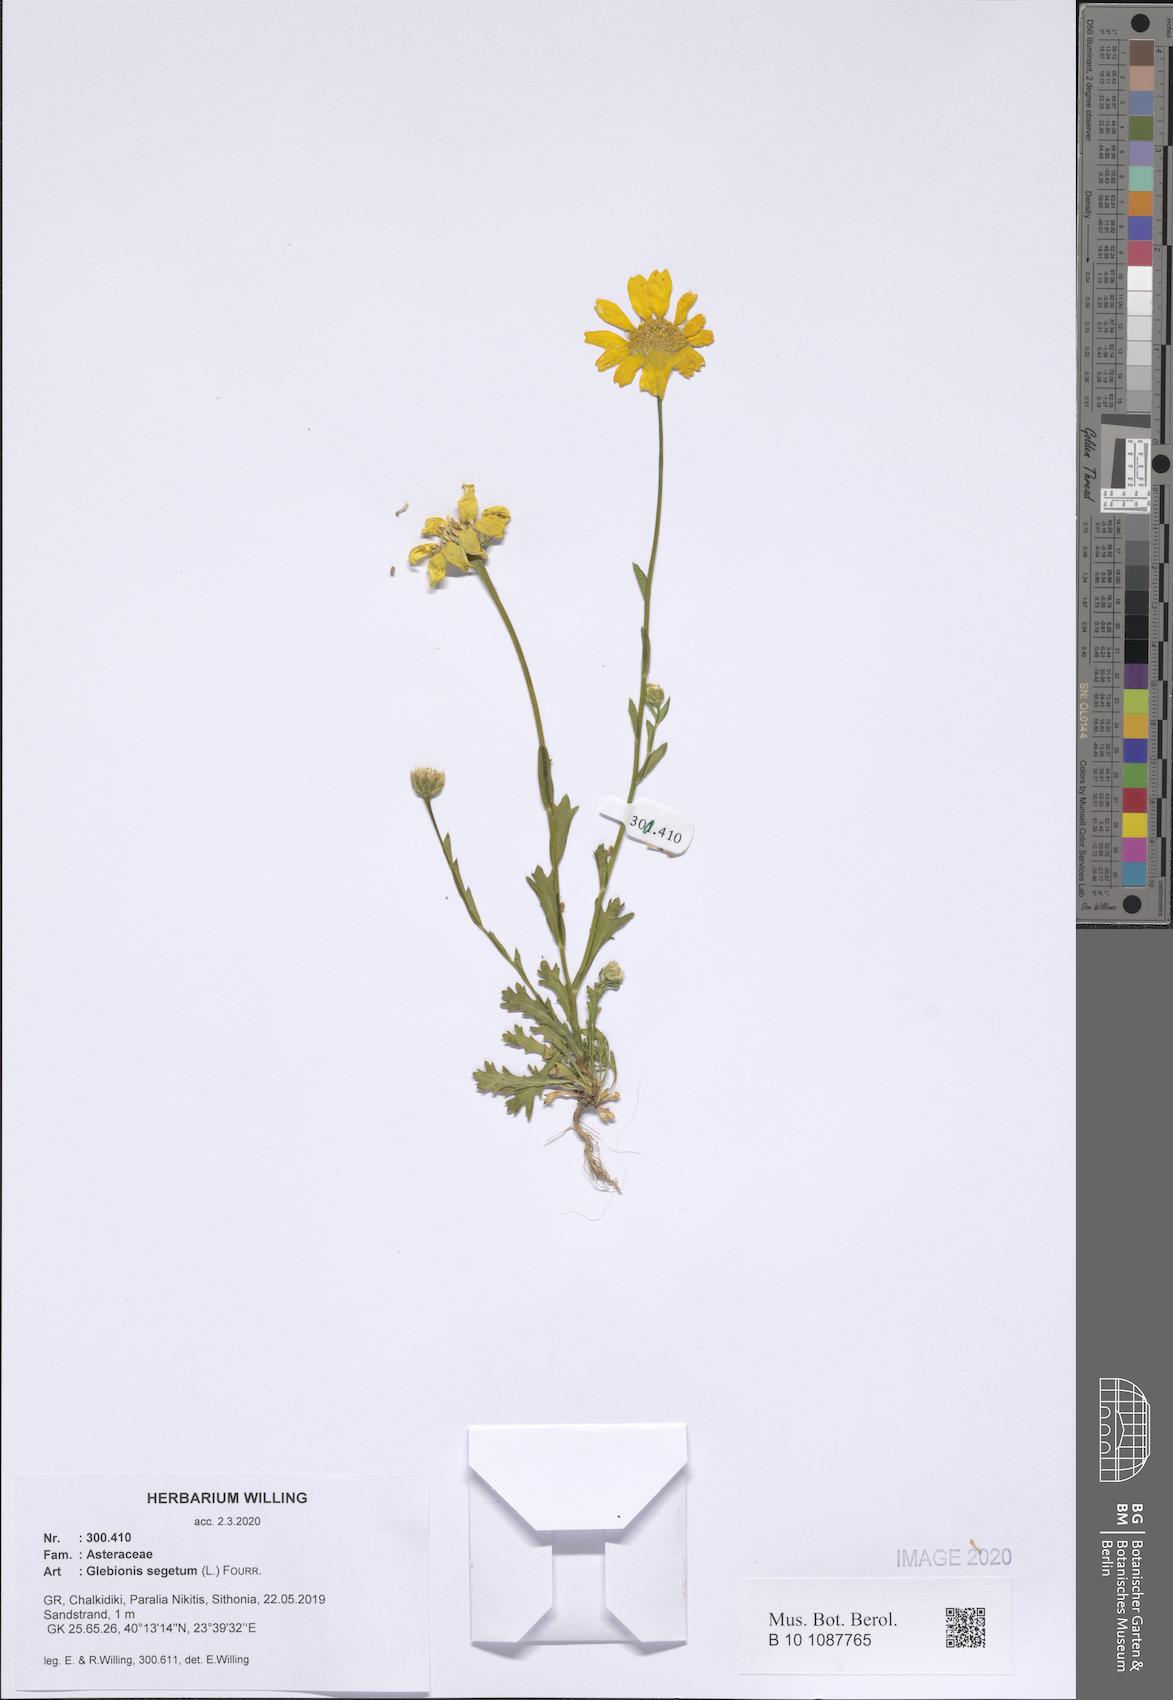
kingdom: Plantae
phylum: Tracheophyta
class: Magnoliopsida
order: Asterales
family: Asteraceae
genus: Glebionis
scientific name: Glebionis segetum
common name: Corndaisy
